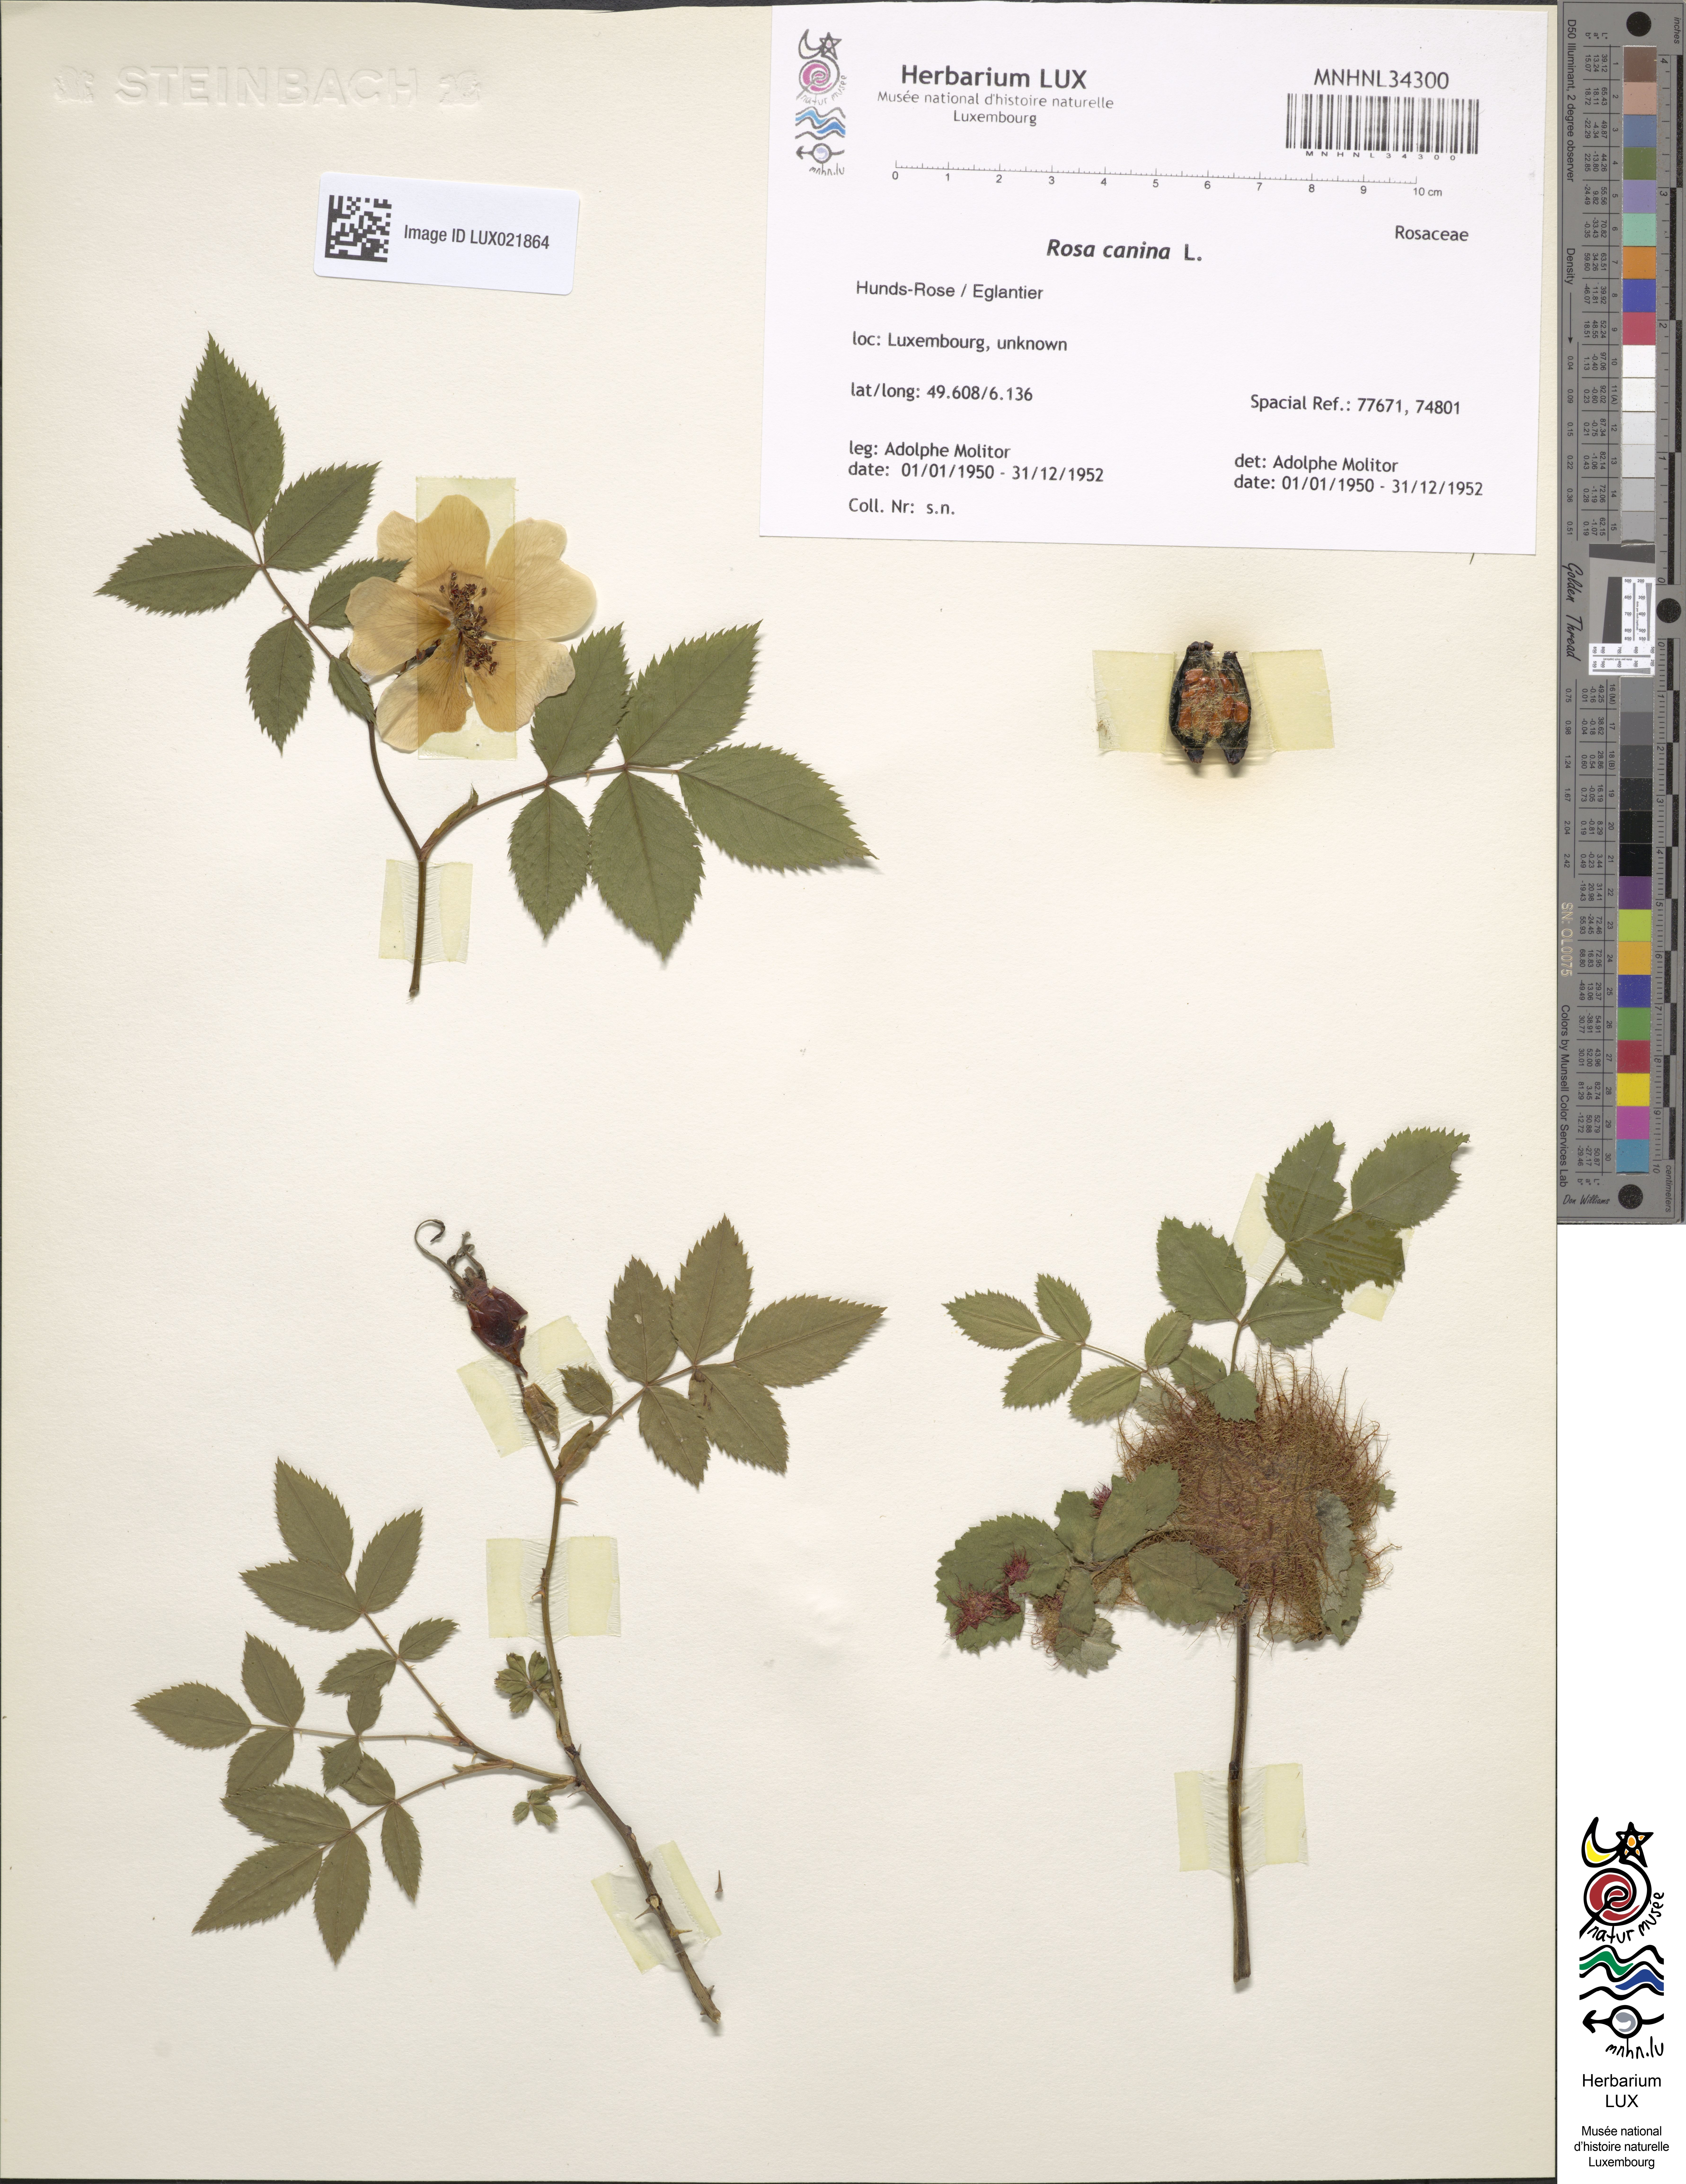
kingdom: Plantae
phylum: Tracheophyta
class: Magnoliopsida
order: Rosales
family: Rosaceae
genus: Rosa
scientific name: Rosa canina
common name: Dog rose
